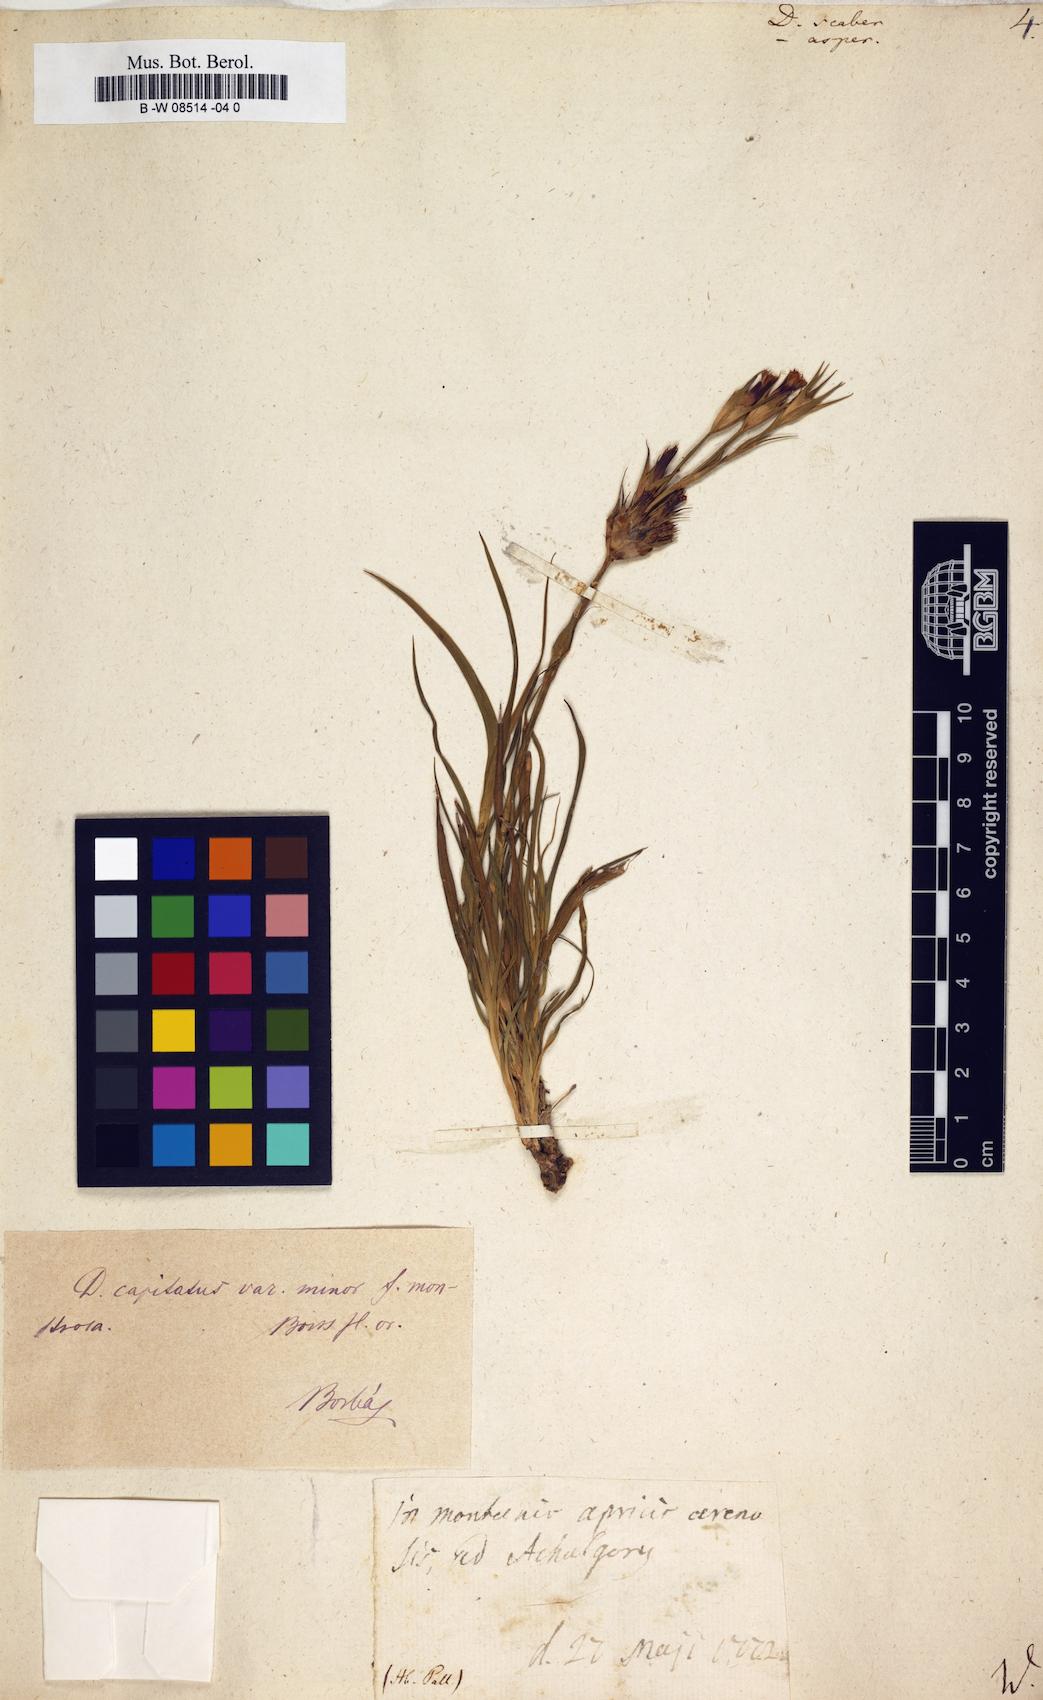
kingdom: Plantae
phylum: Tracheophyta
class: Magnoliopsida
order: Caryophyllales
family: Caryophyllaceae
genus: Dianthus
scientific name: Dianthus scaber
